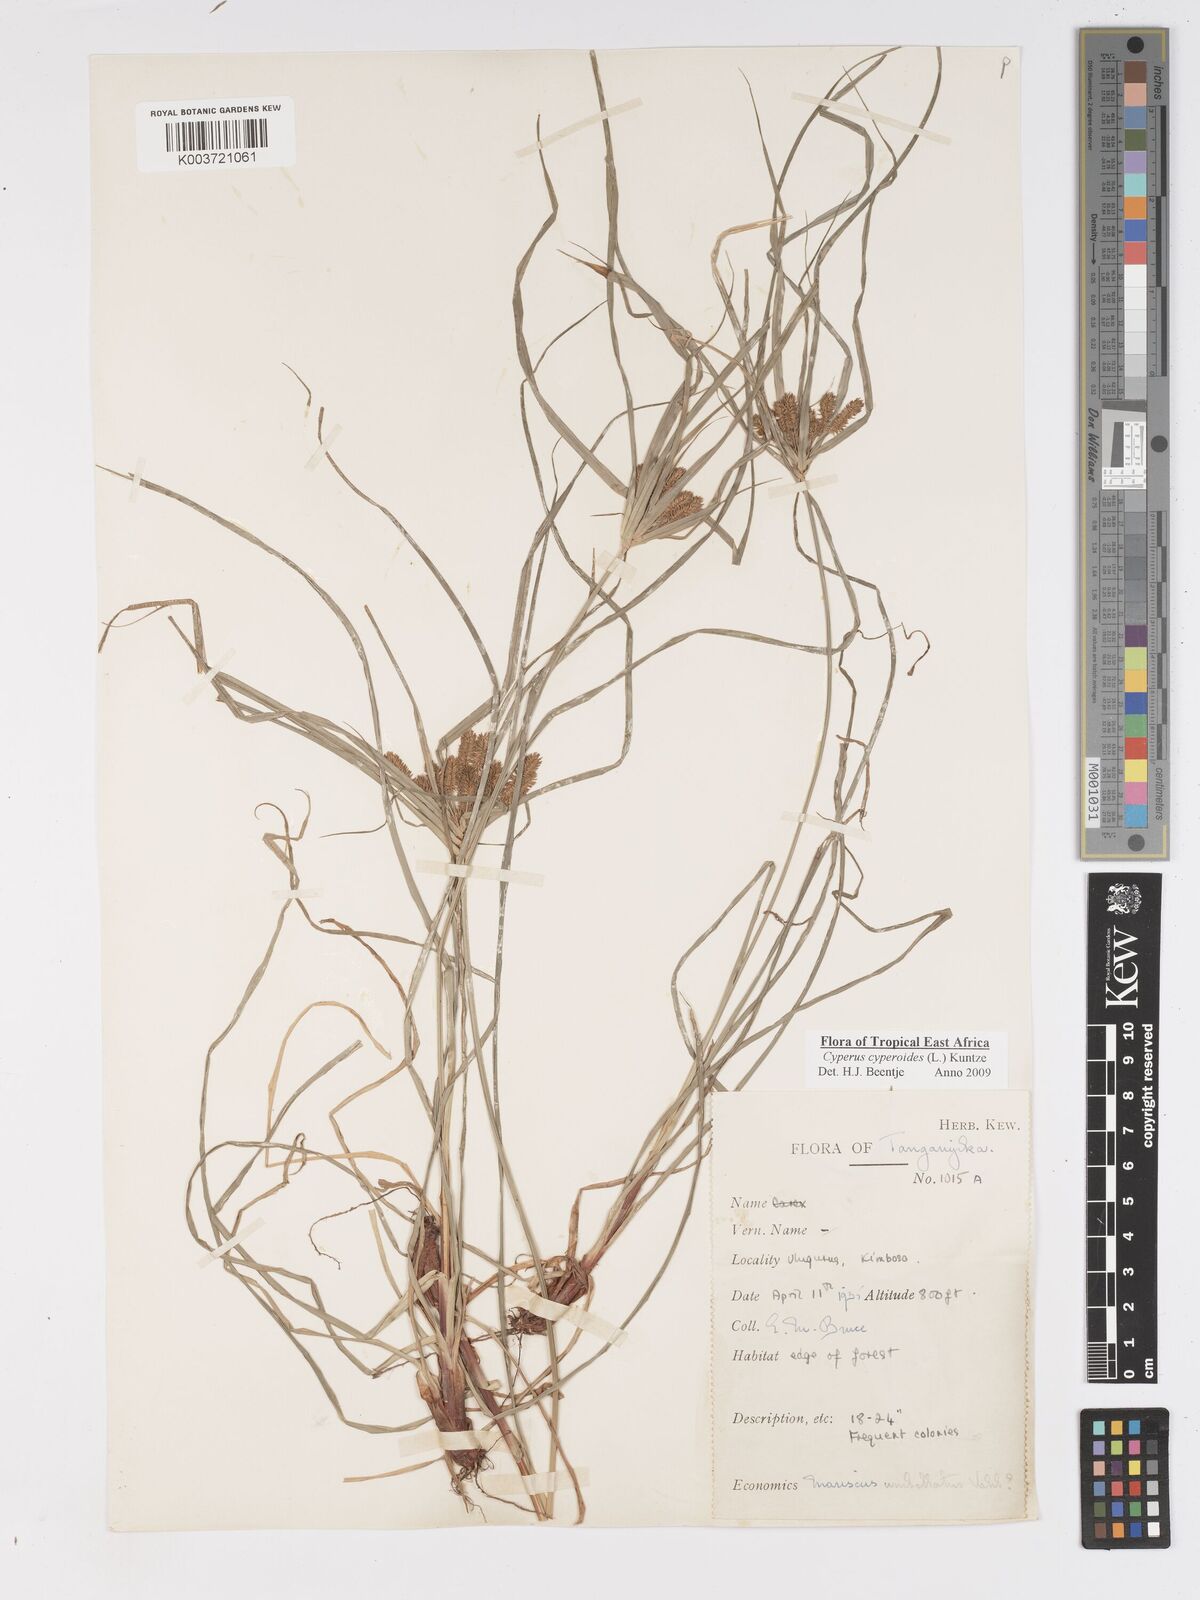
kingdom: Plantae
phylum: Tracheophyta
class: Liliopsida
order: Poales
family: Cyperaceae
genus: Cyperus
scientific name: Cyperus cyperoides
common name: Pacific island flat sedge
